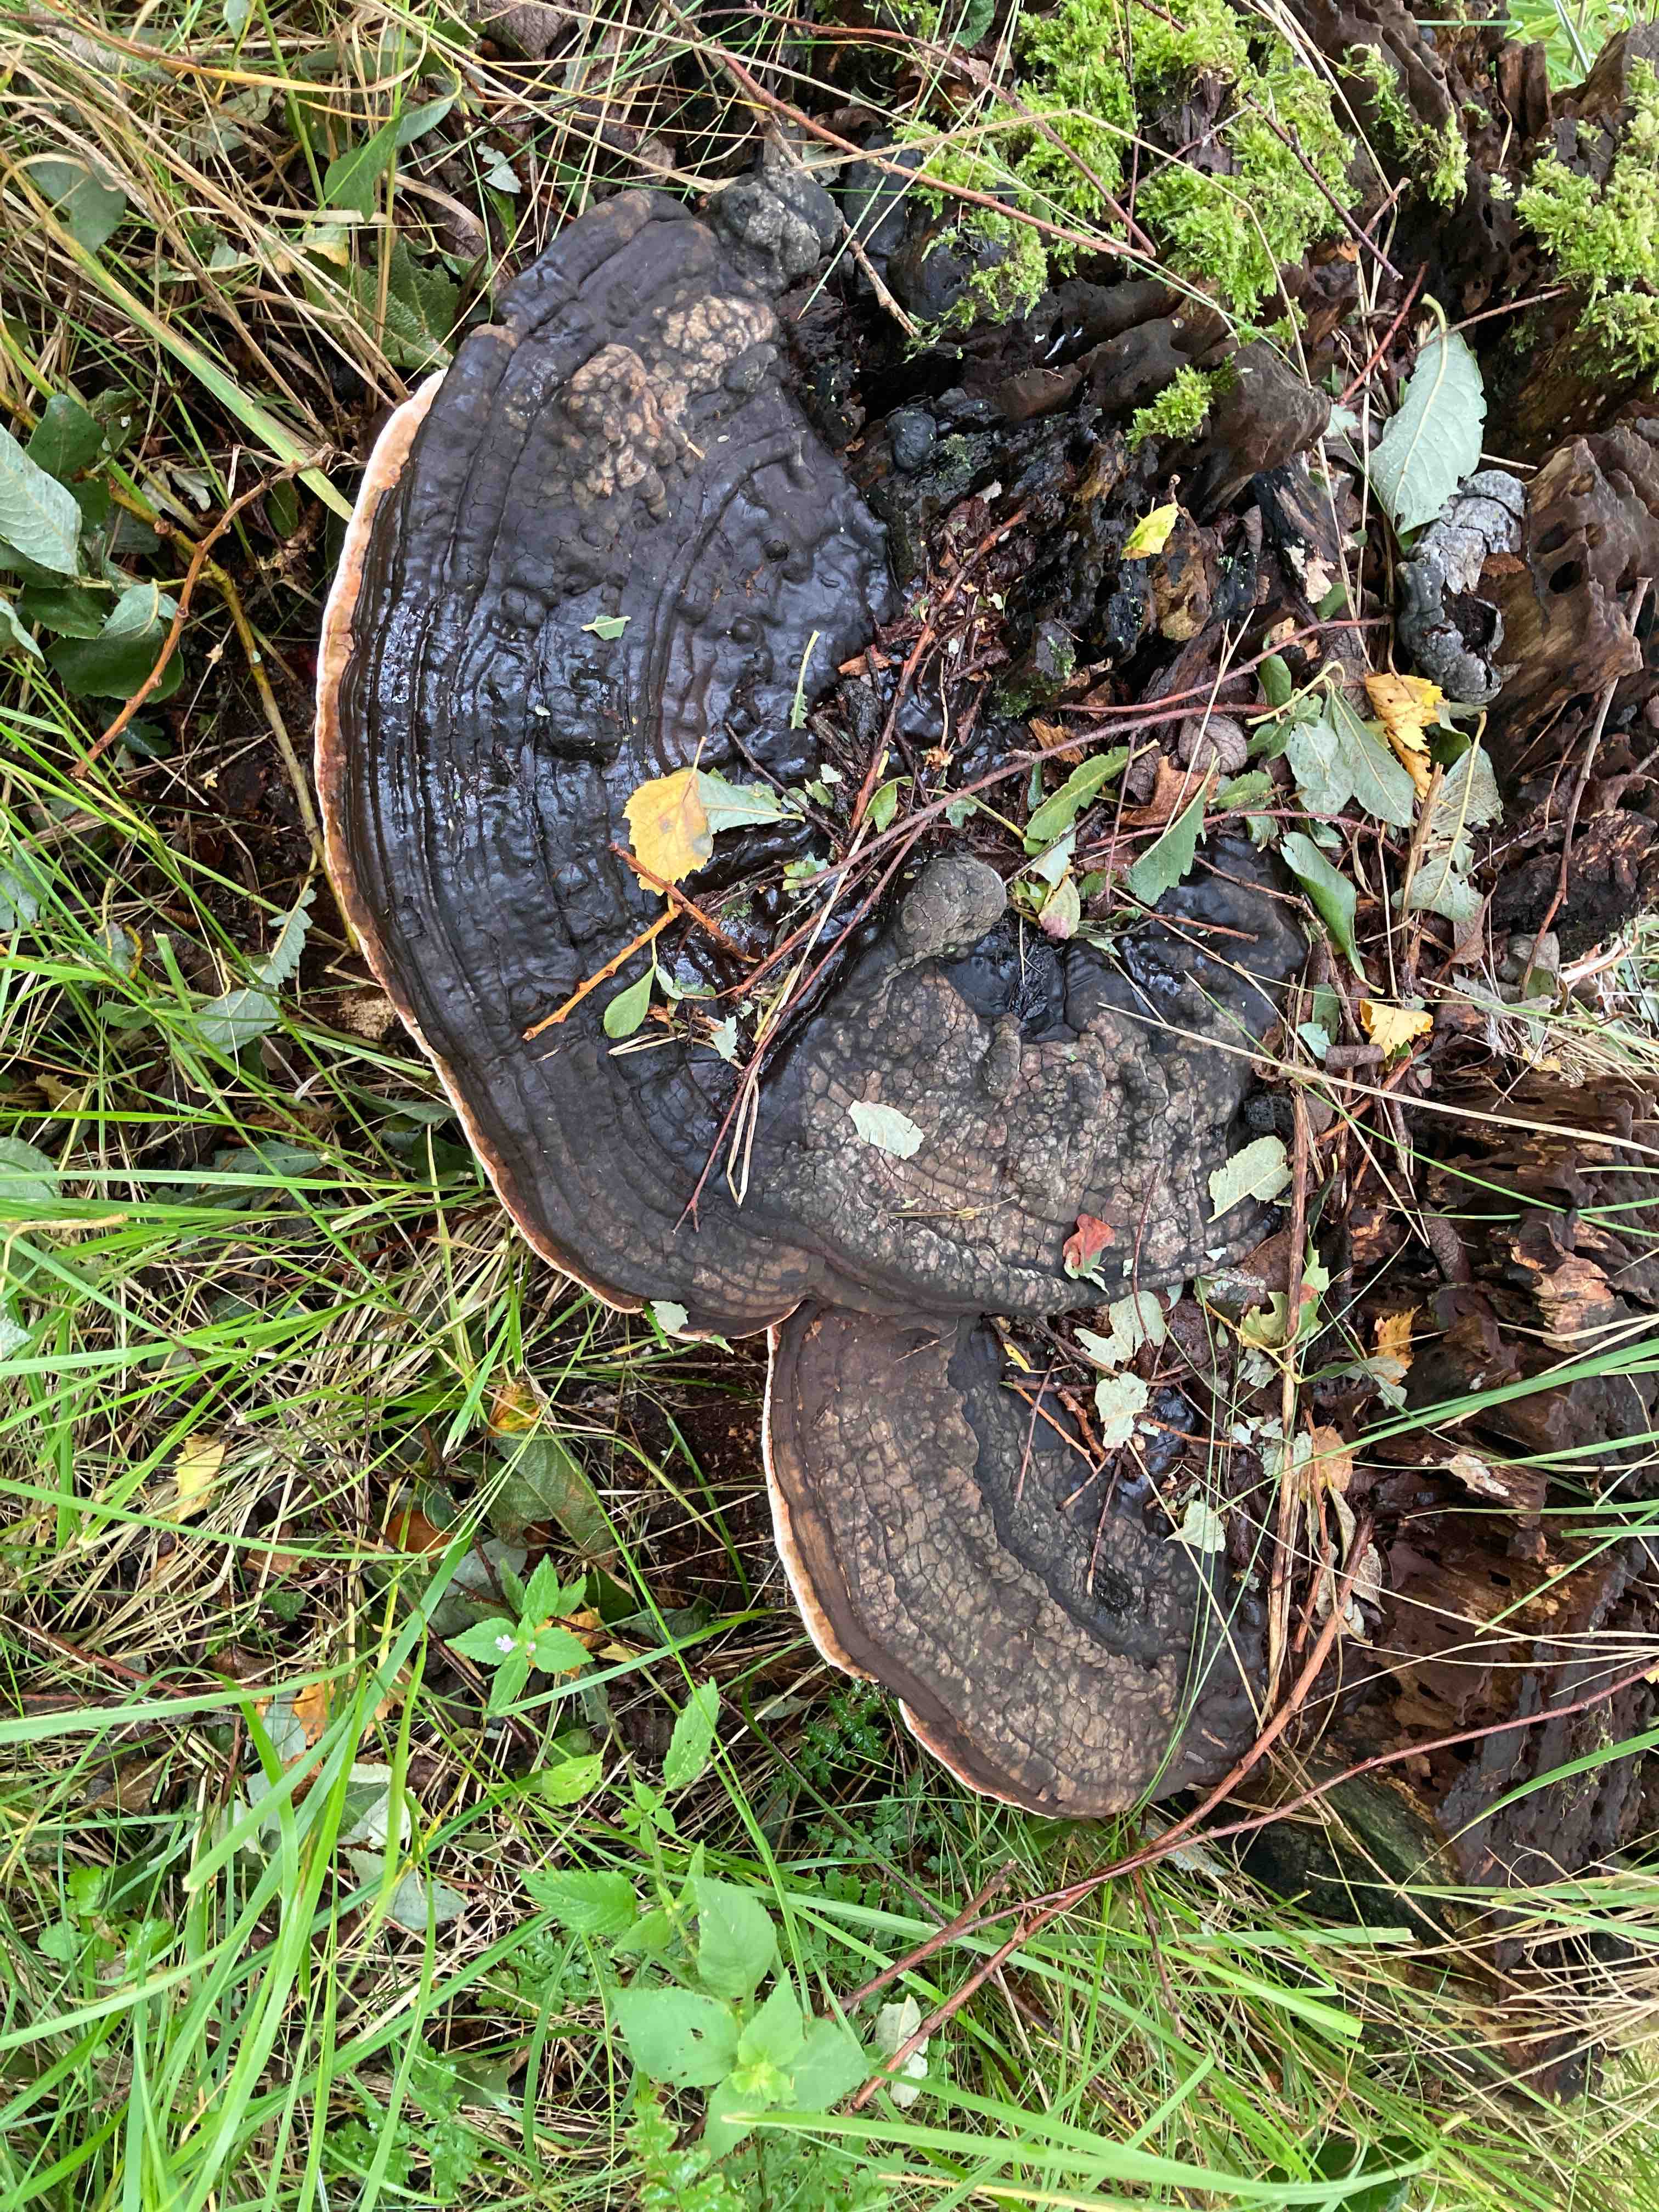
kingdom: Fungi
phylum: Basidiomycota
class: Agaricomycetes
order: Polyporales
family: Polyporaceae
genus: Ganoderma
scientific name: Ganoderma applanatum
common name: flad lakporesvamp
